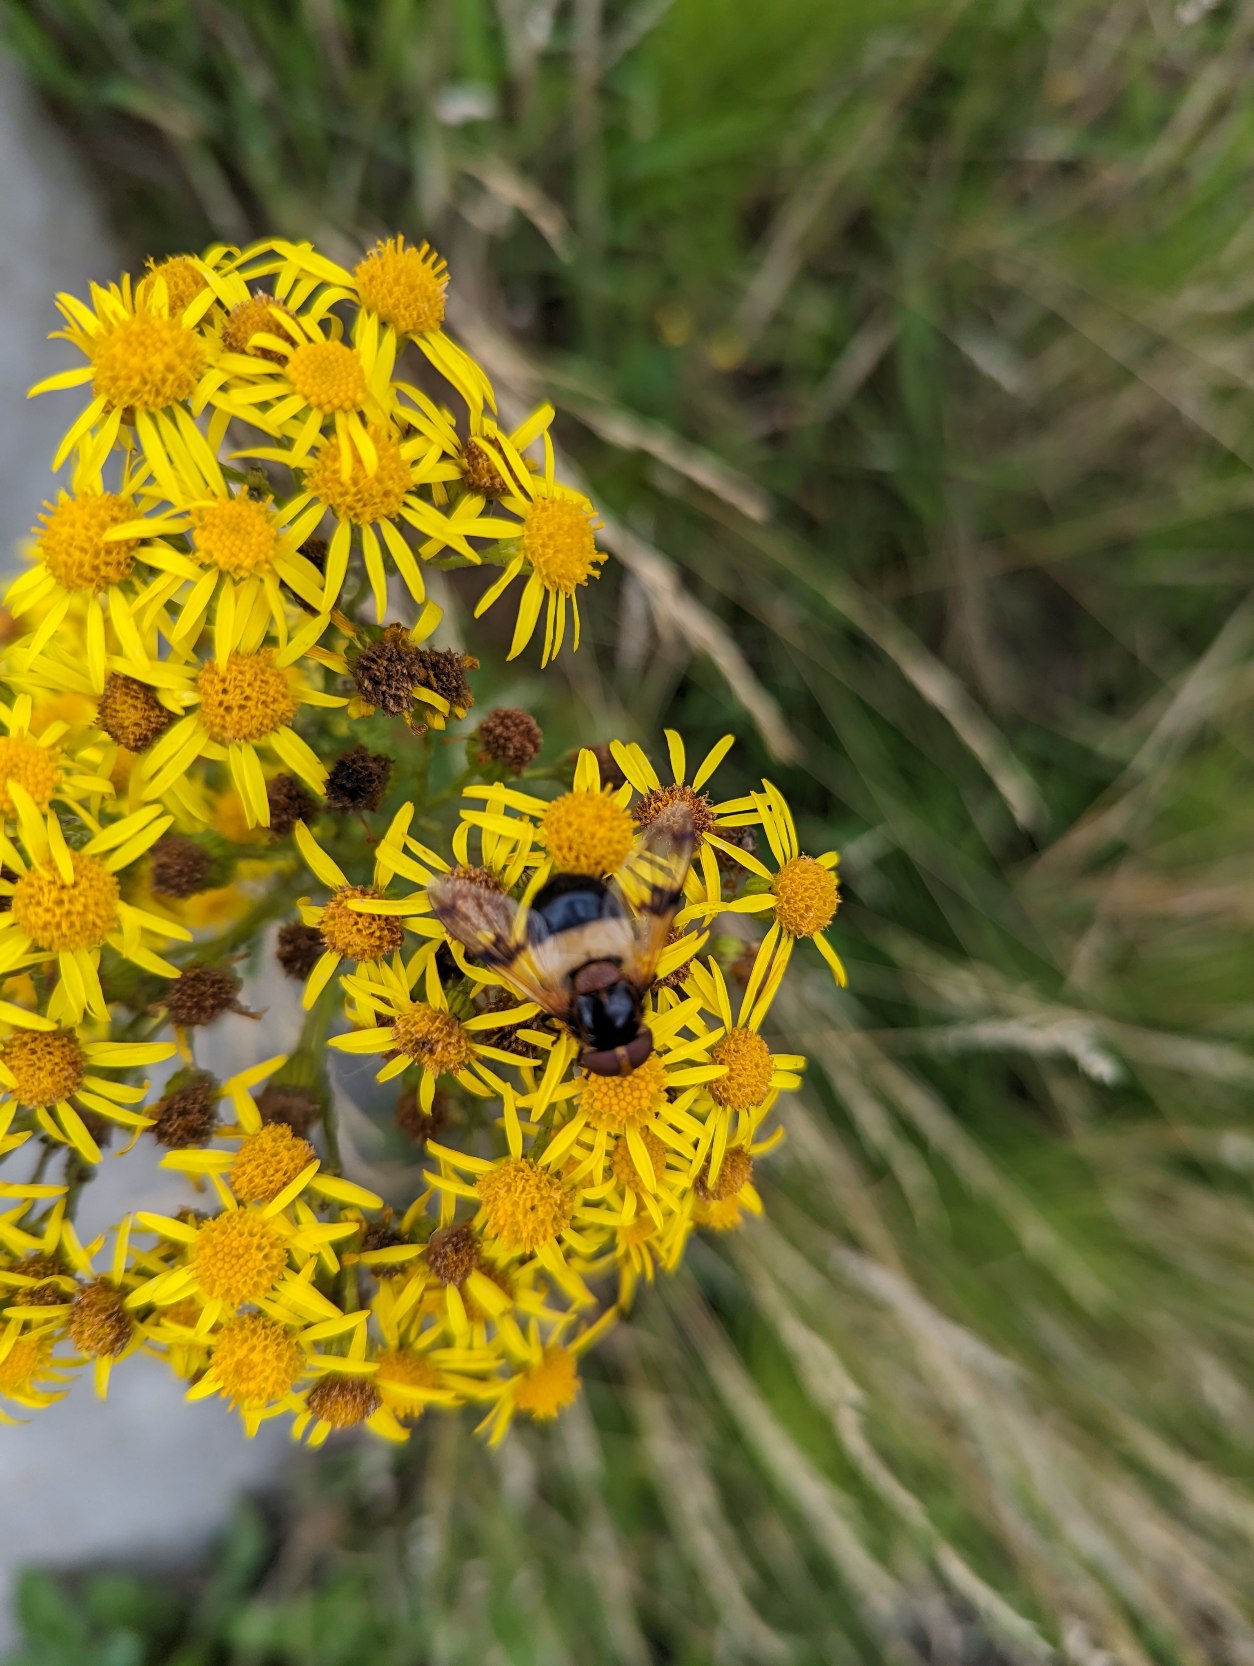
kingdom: Animalia
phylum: Arthropoda
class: Insecta
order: Diptera
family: Syrphidae
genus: Volucella
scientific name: Volucella pellucens
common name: Hvidbåndet humlesvirreflue
